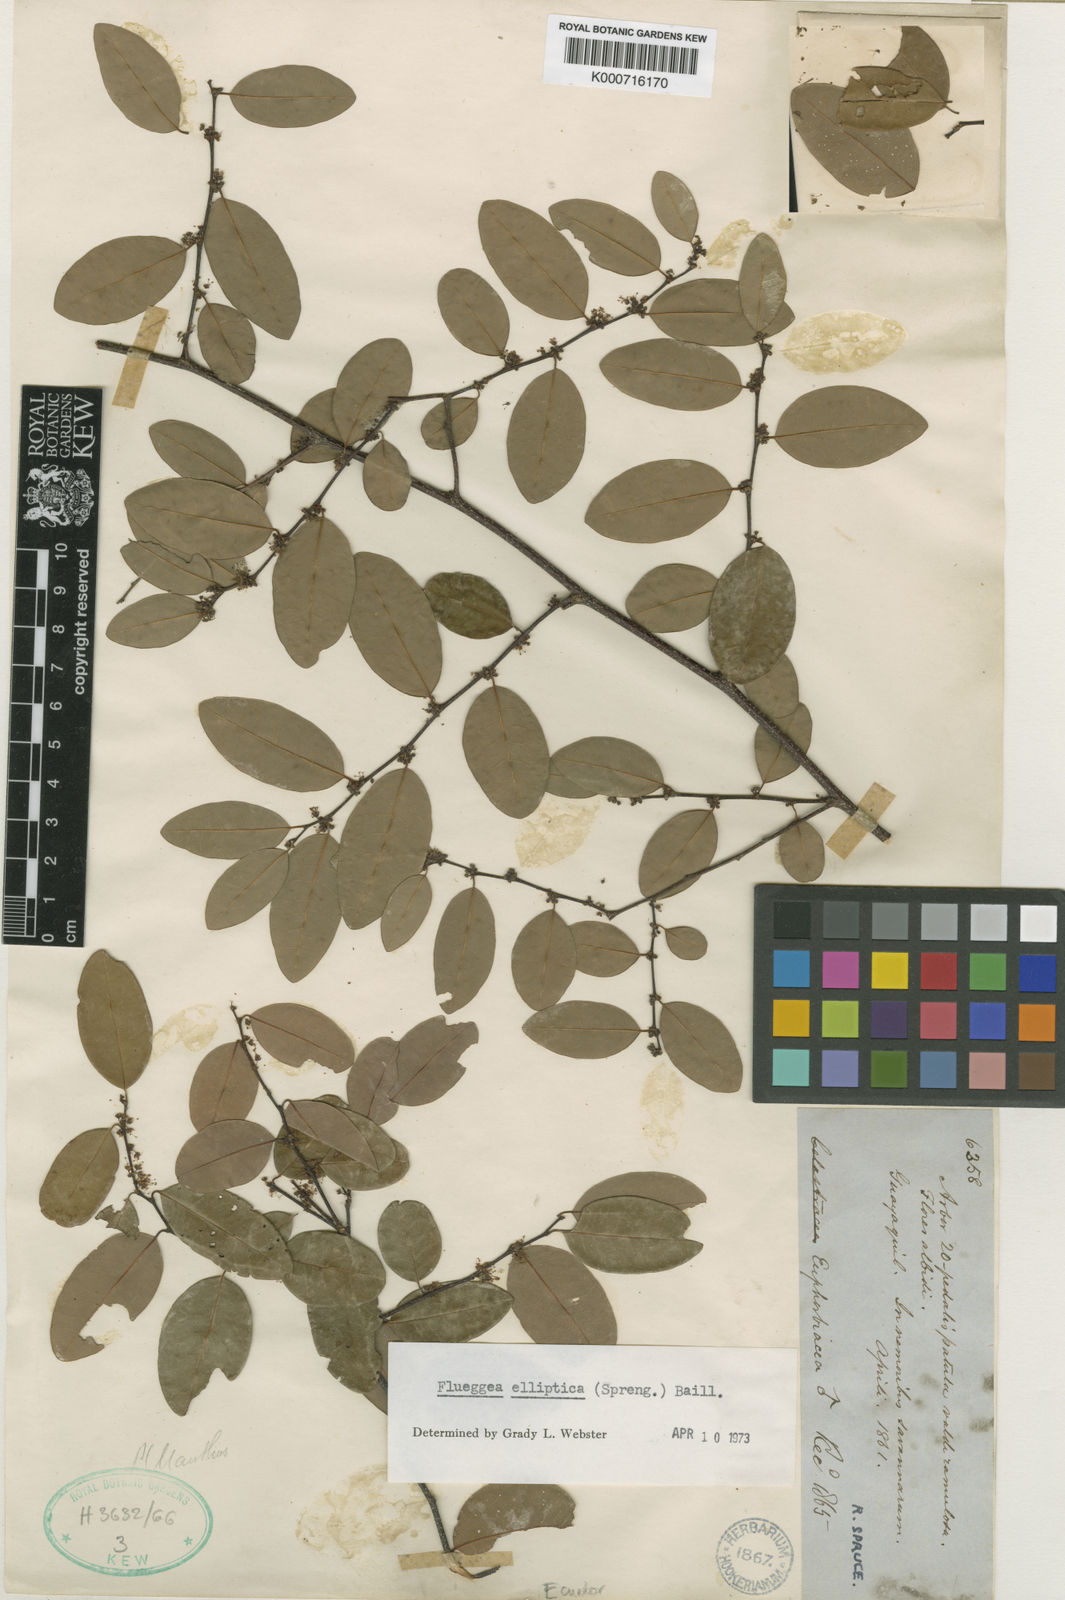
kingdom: Plantae
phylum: Tracheophyta
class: Magnoliopsida
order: Malpighiales
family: Phyllanthaceae
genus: Flueggea
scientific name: Flueggea elliptica
